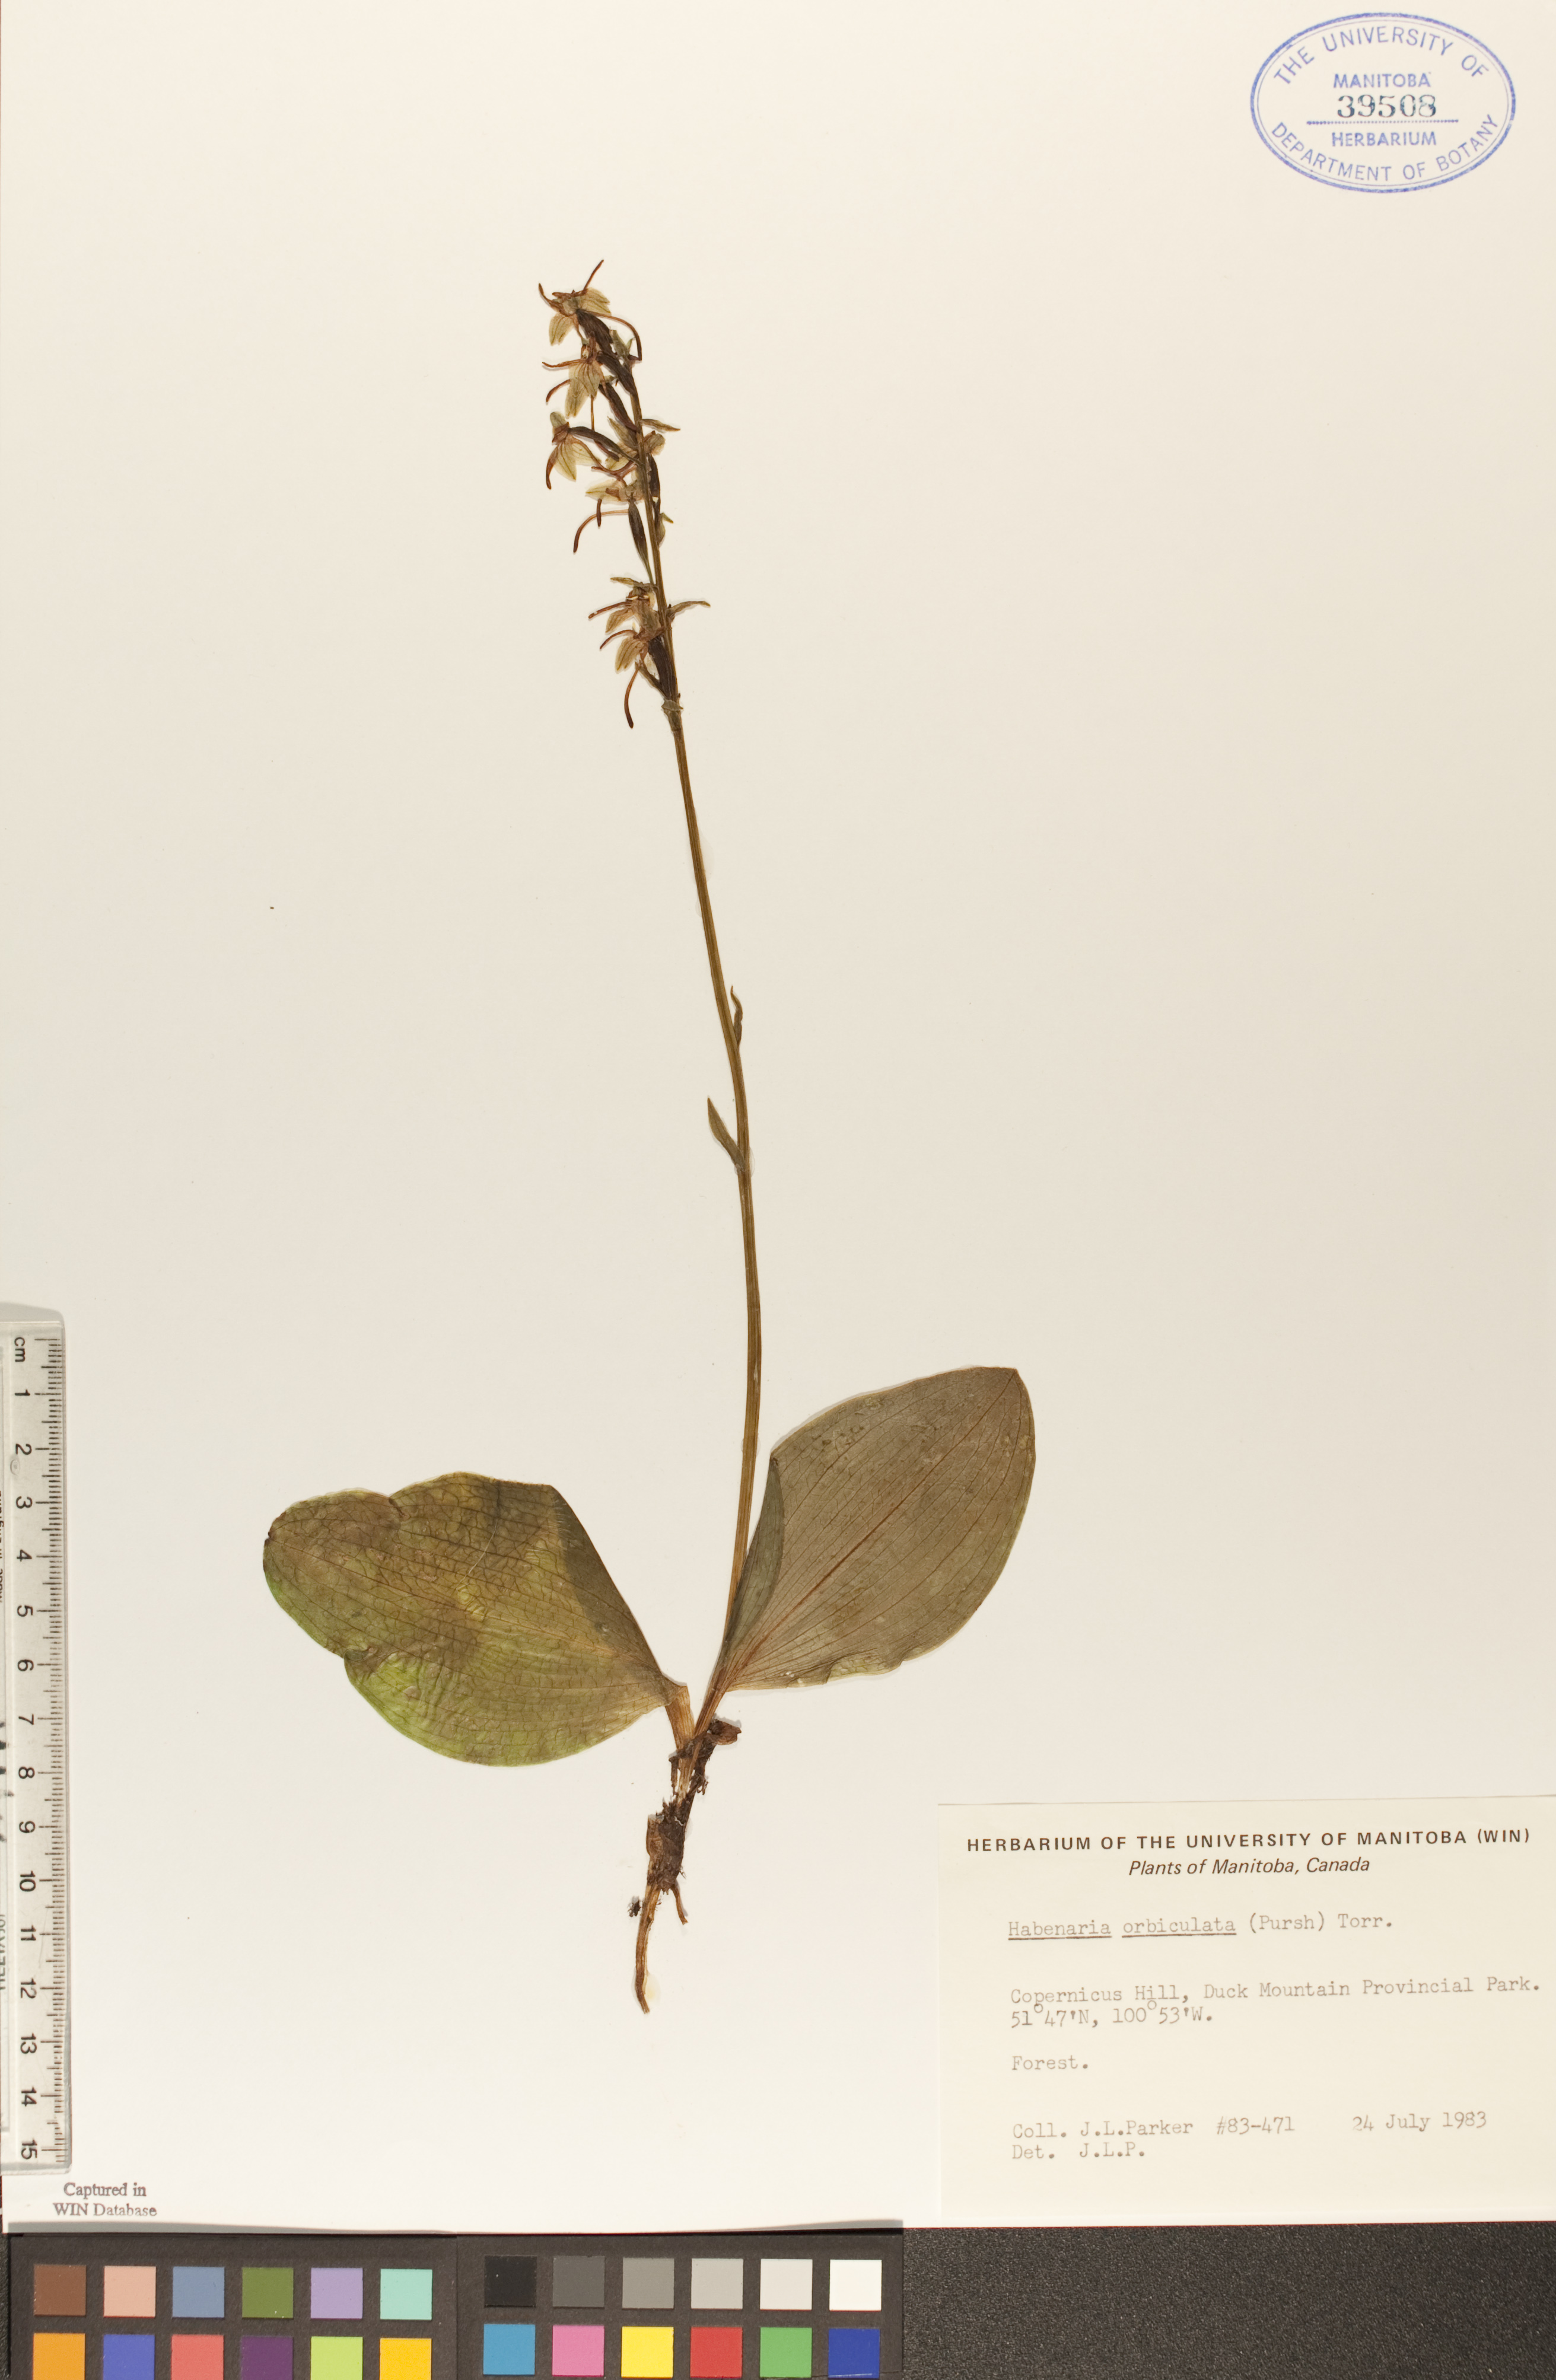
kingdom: Plantae
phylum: Tracheophyta
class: Liliopsida
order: Asparagales
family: Orchidaceae
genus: Platanthera
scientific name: Platanthera orbiculata
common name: Large round-leaved orchid
